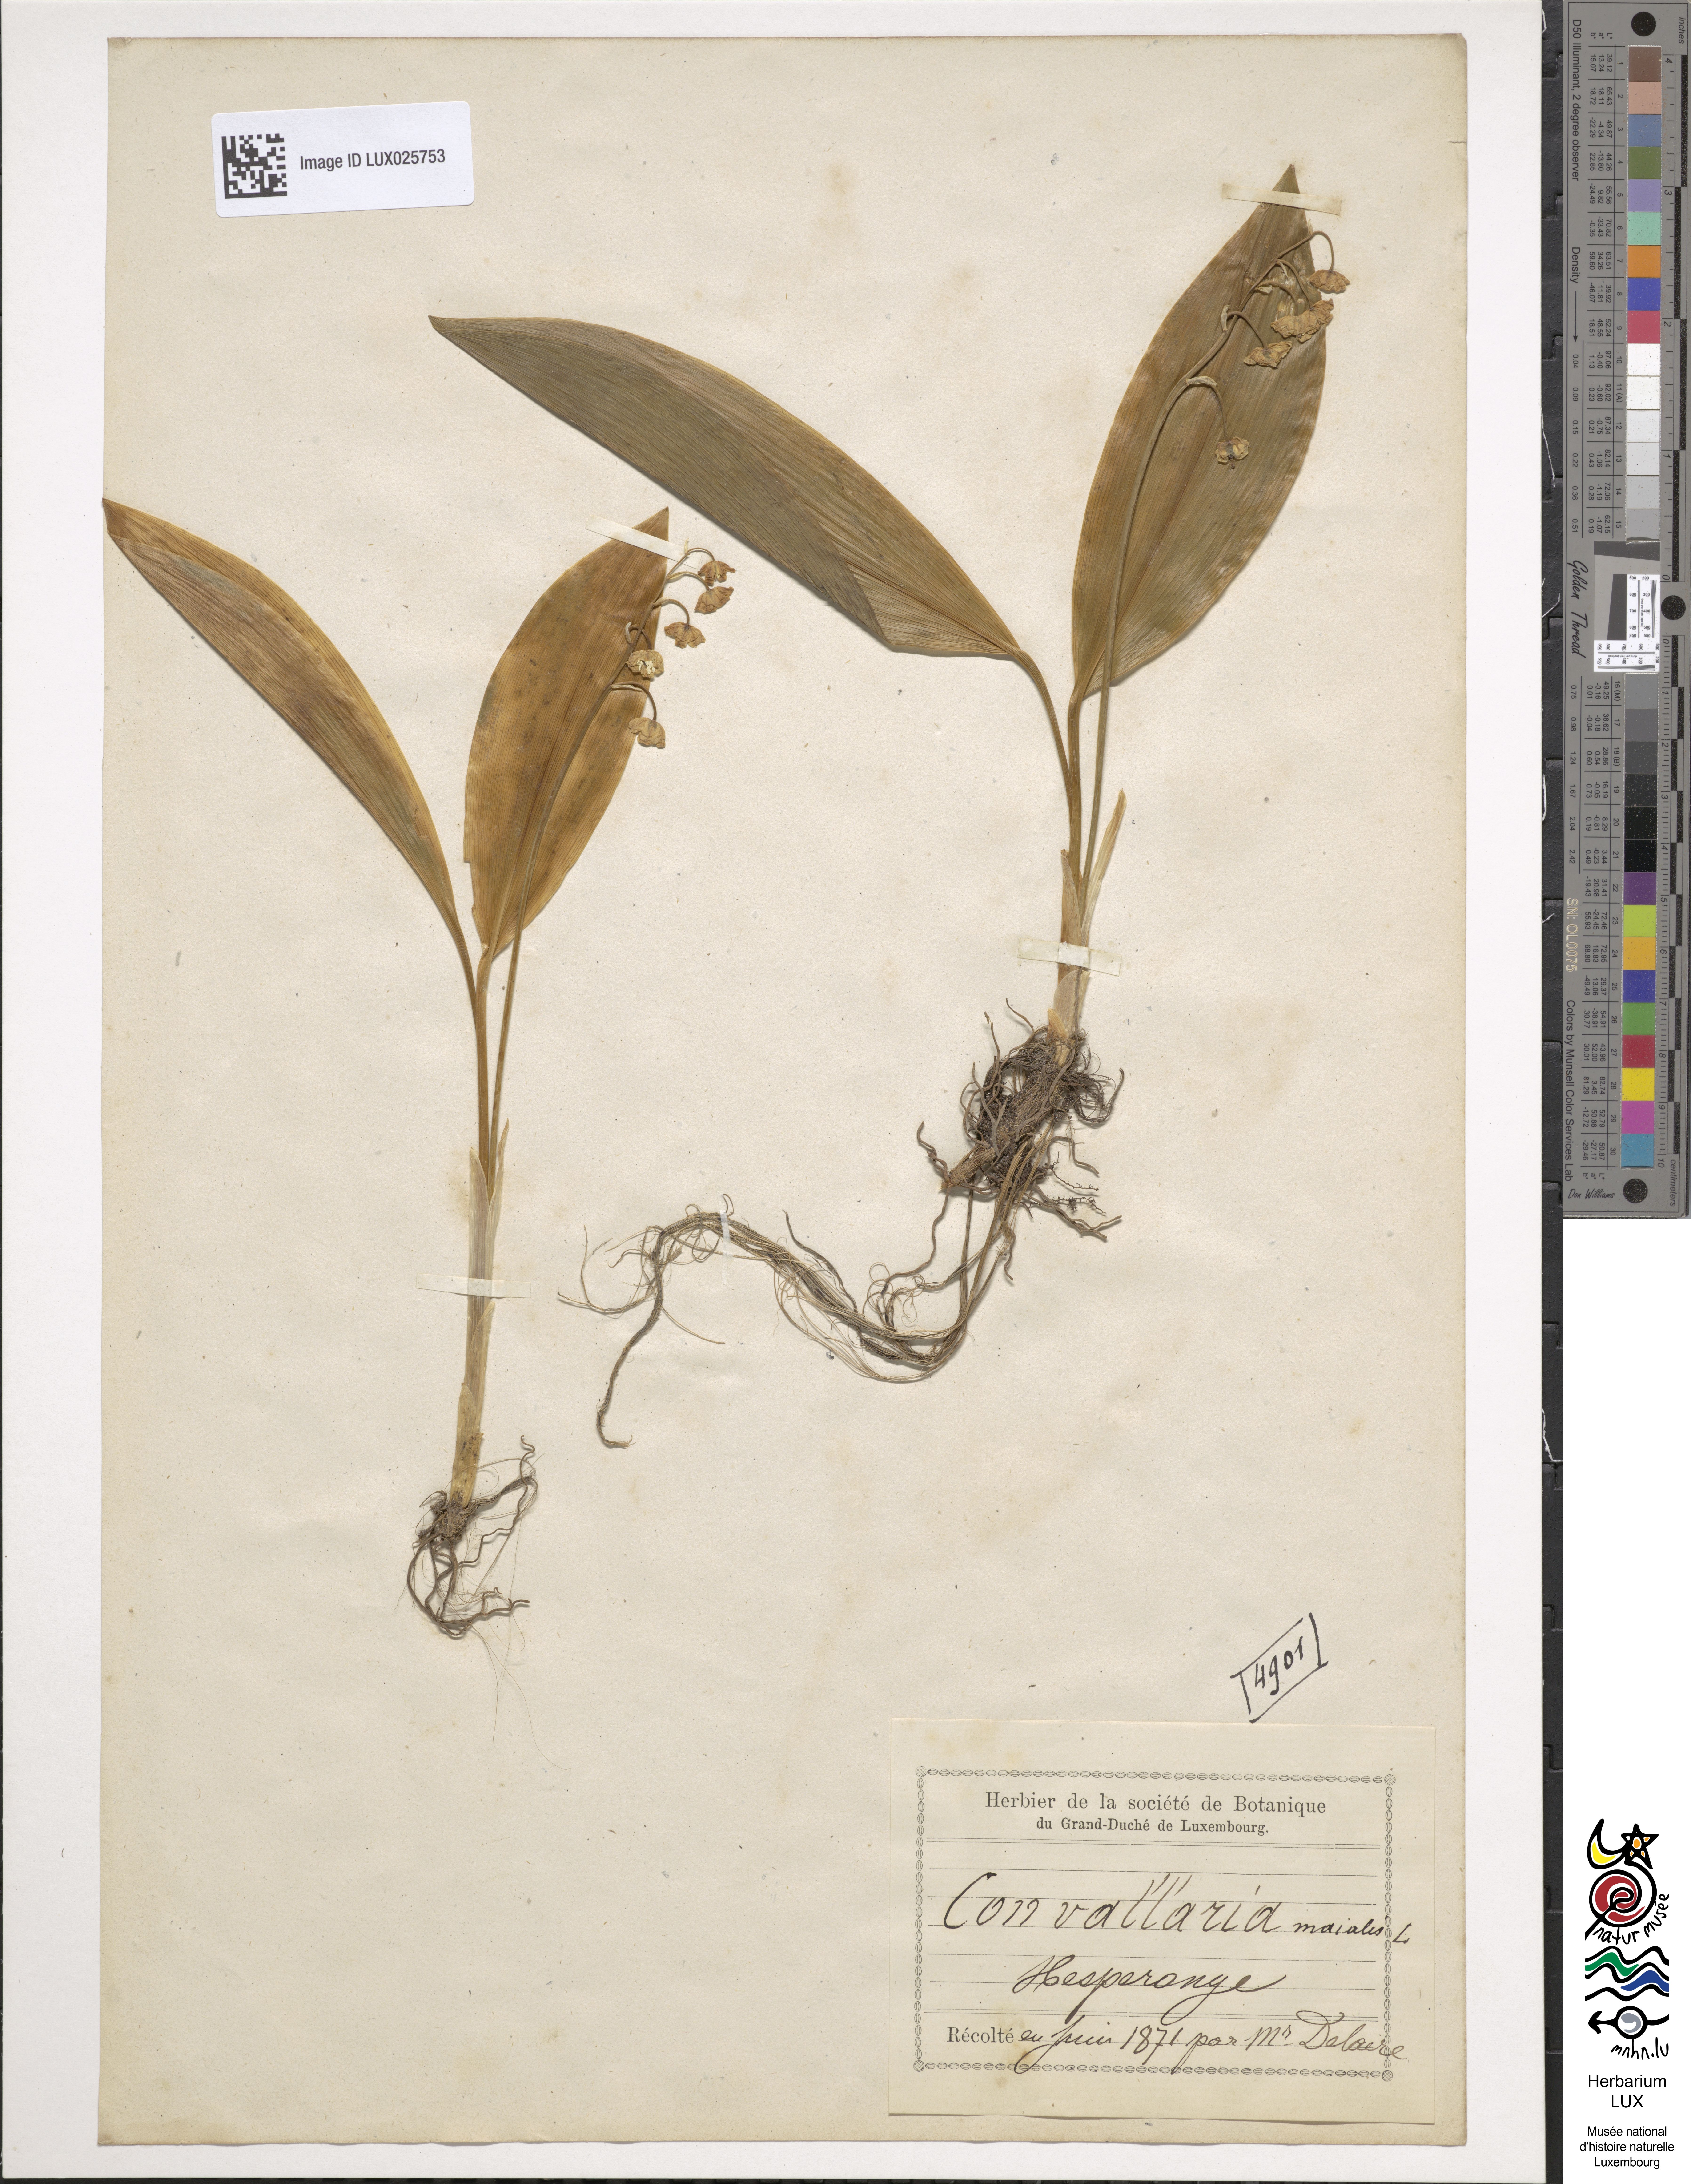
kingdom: Plantae
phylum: Tracheophyta
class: Liliopsida
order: Asparagales
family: Asparagaceae
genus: Convallaria
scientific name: Convallaria majalis
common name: Lily-of-the-valley
